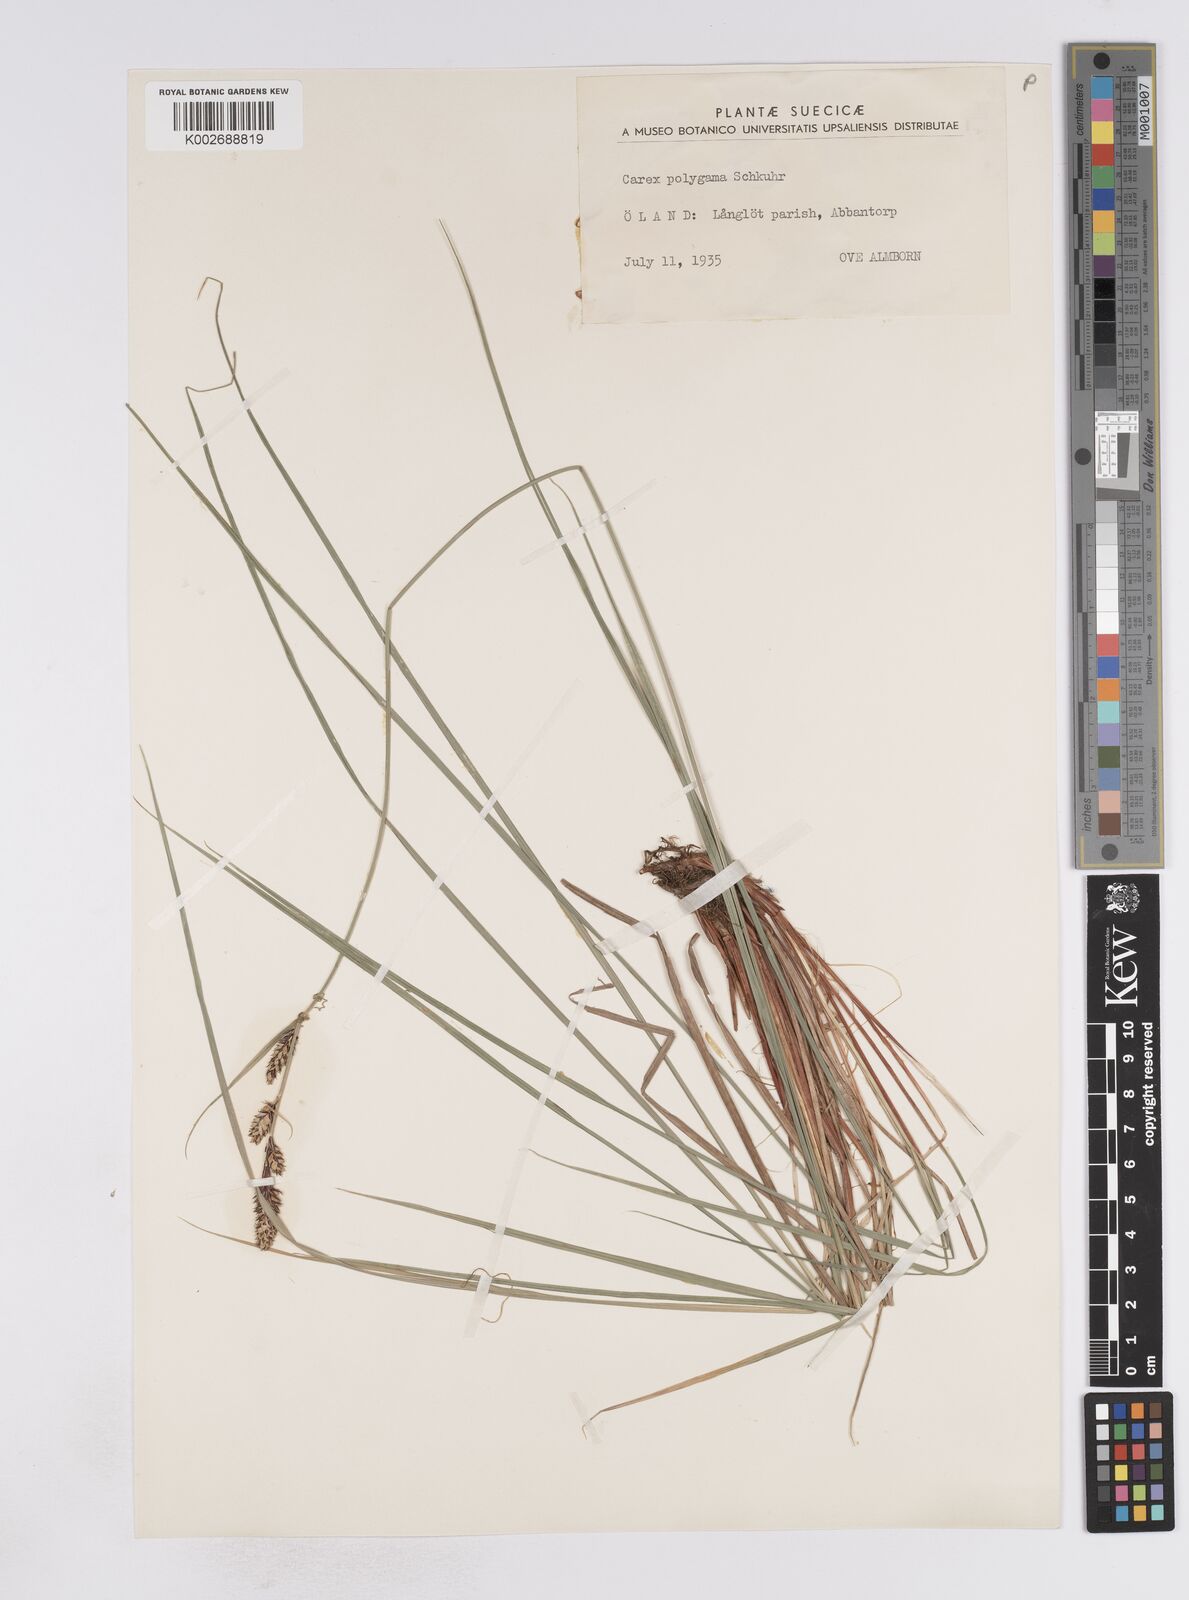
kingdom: Plantae
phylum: Tracheophyta
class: Liliopsida
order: Poales
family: Cyperaceae
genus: Carex
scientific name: Carex buxbaumii
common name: Club sedge
